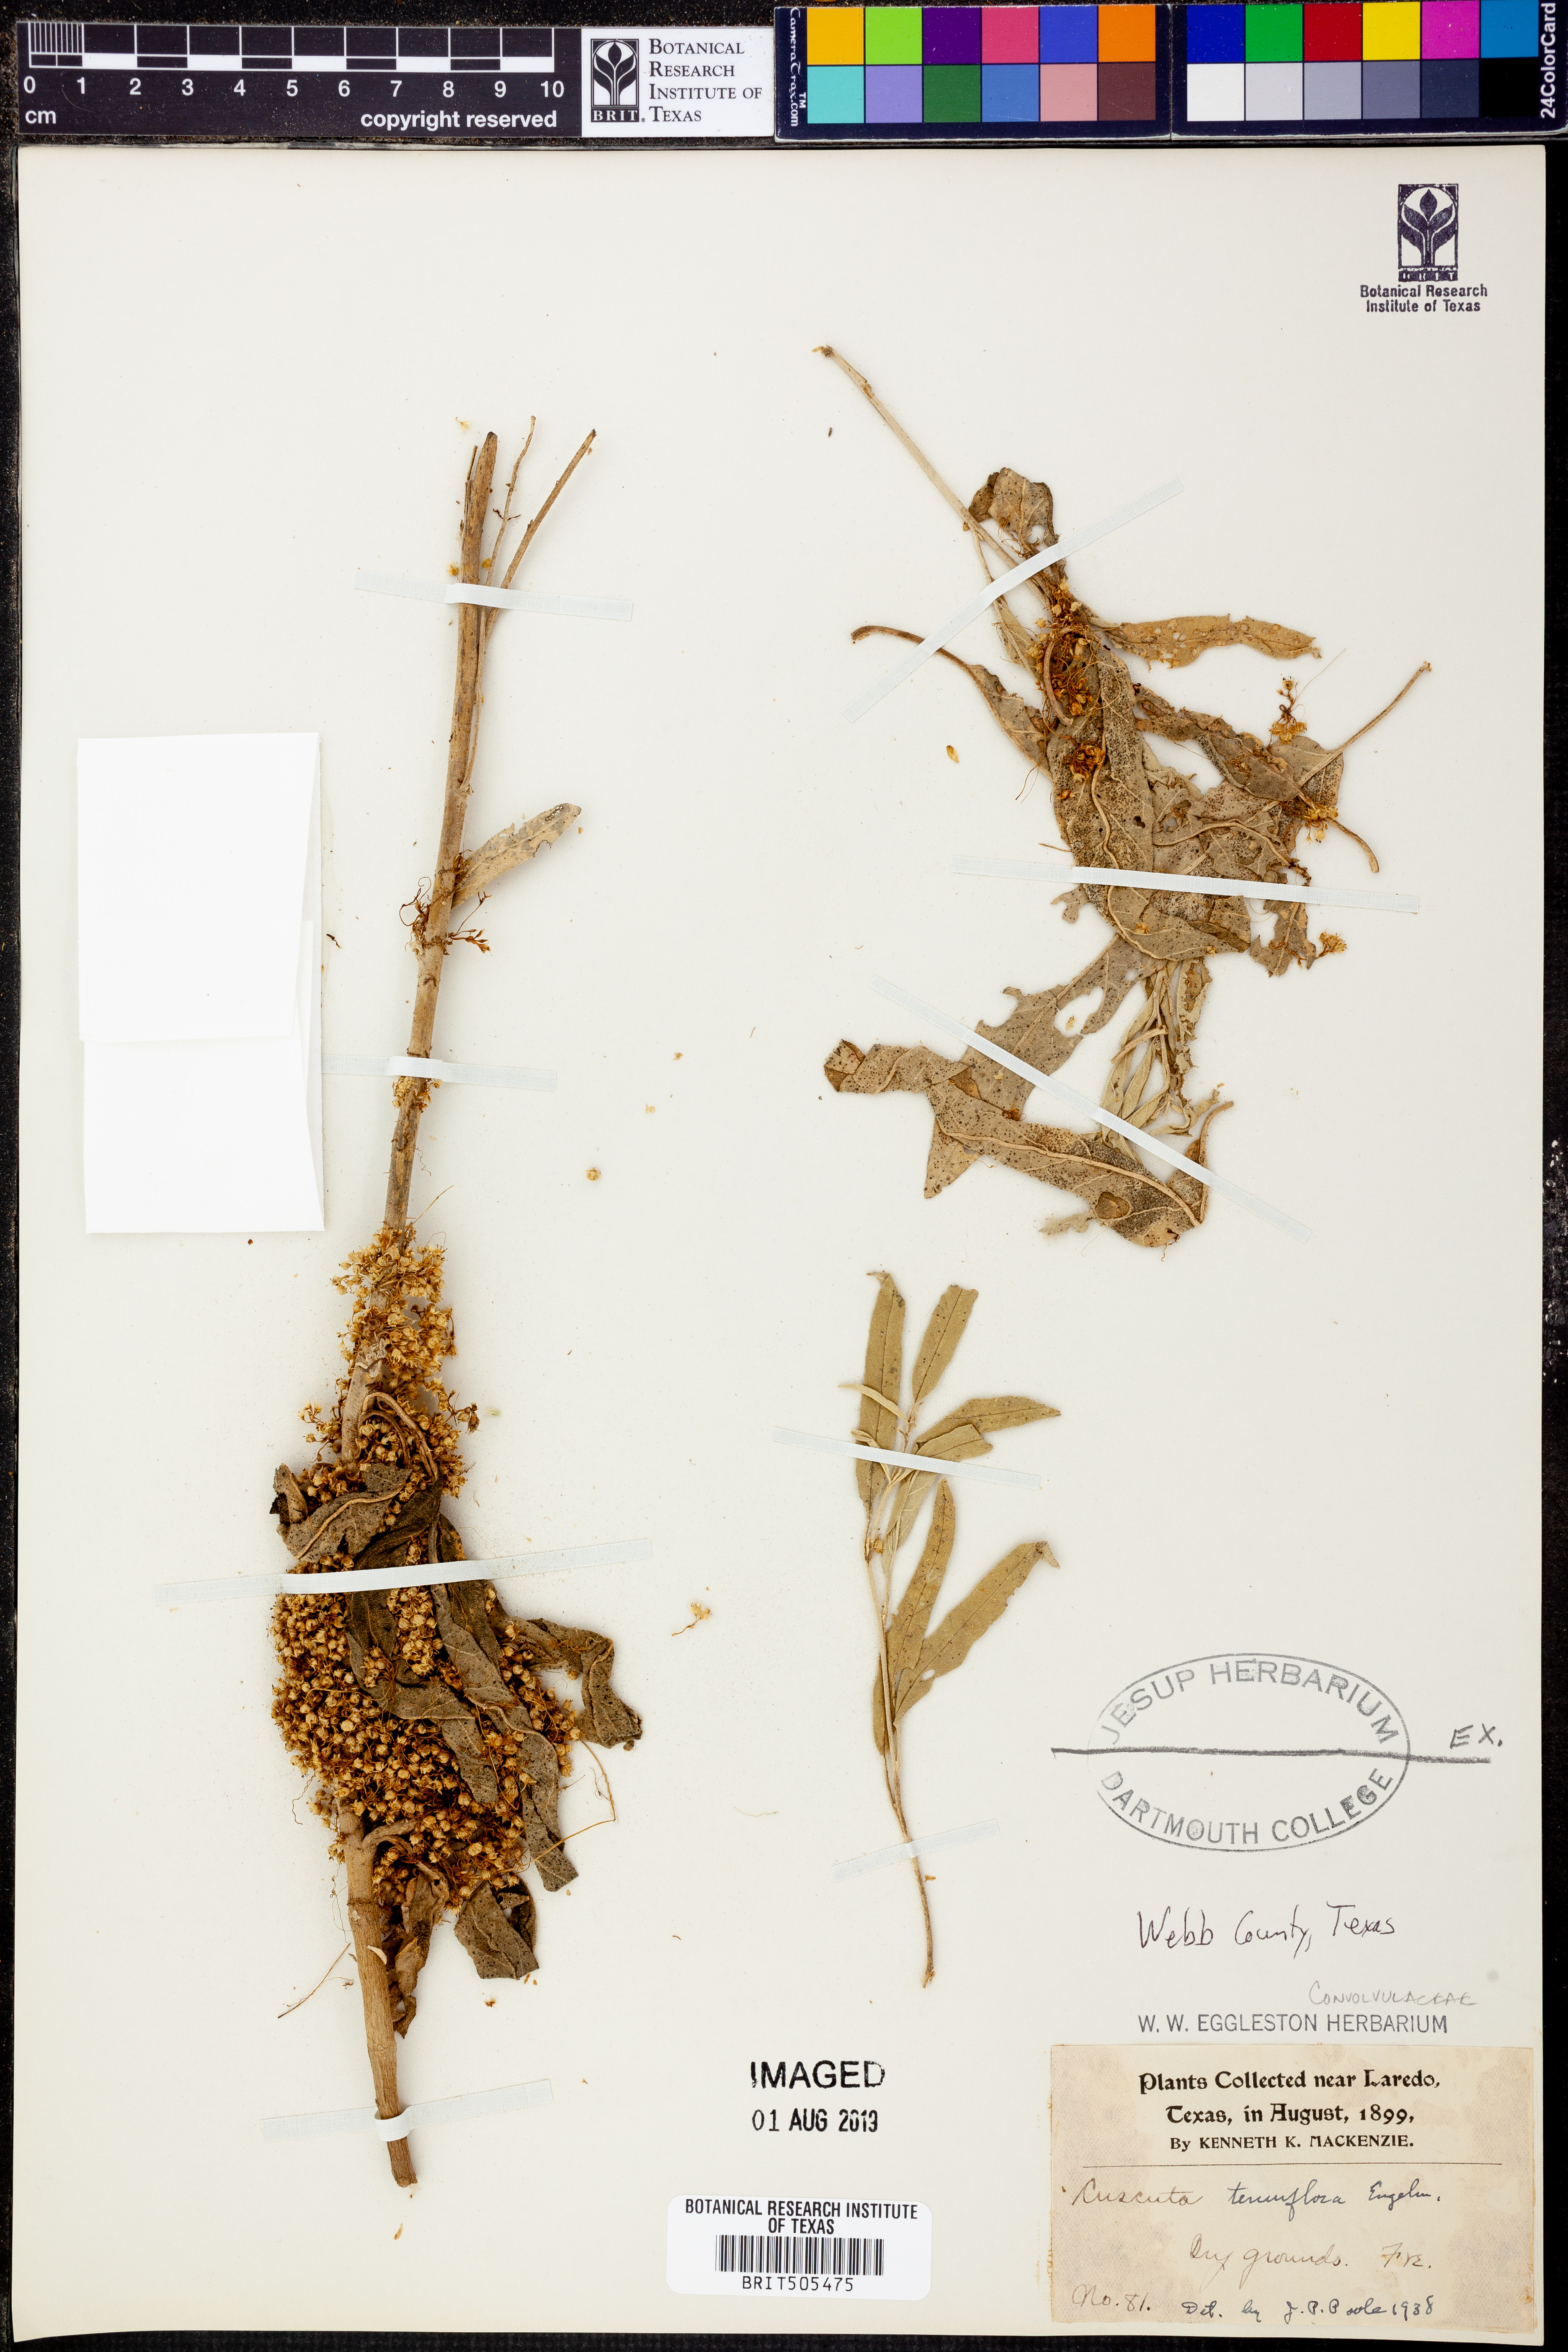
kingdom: Plantae
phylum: Tracheophyta
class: Magnoliopsida
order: Solanales
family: Convolvulaceae
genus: Cuscuta
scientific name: Cuscuta cephalanthi
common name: Button dodder
